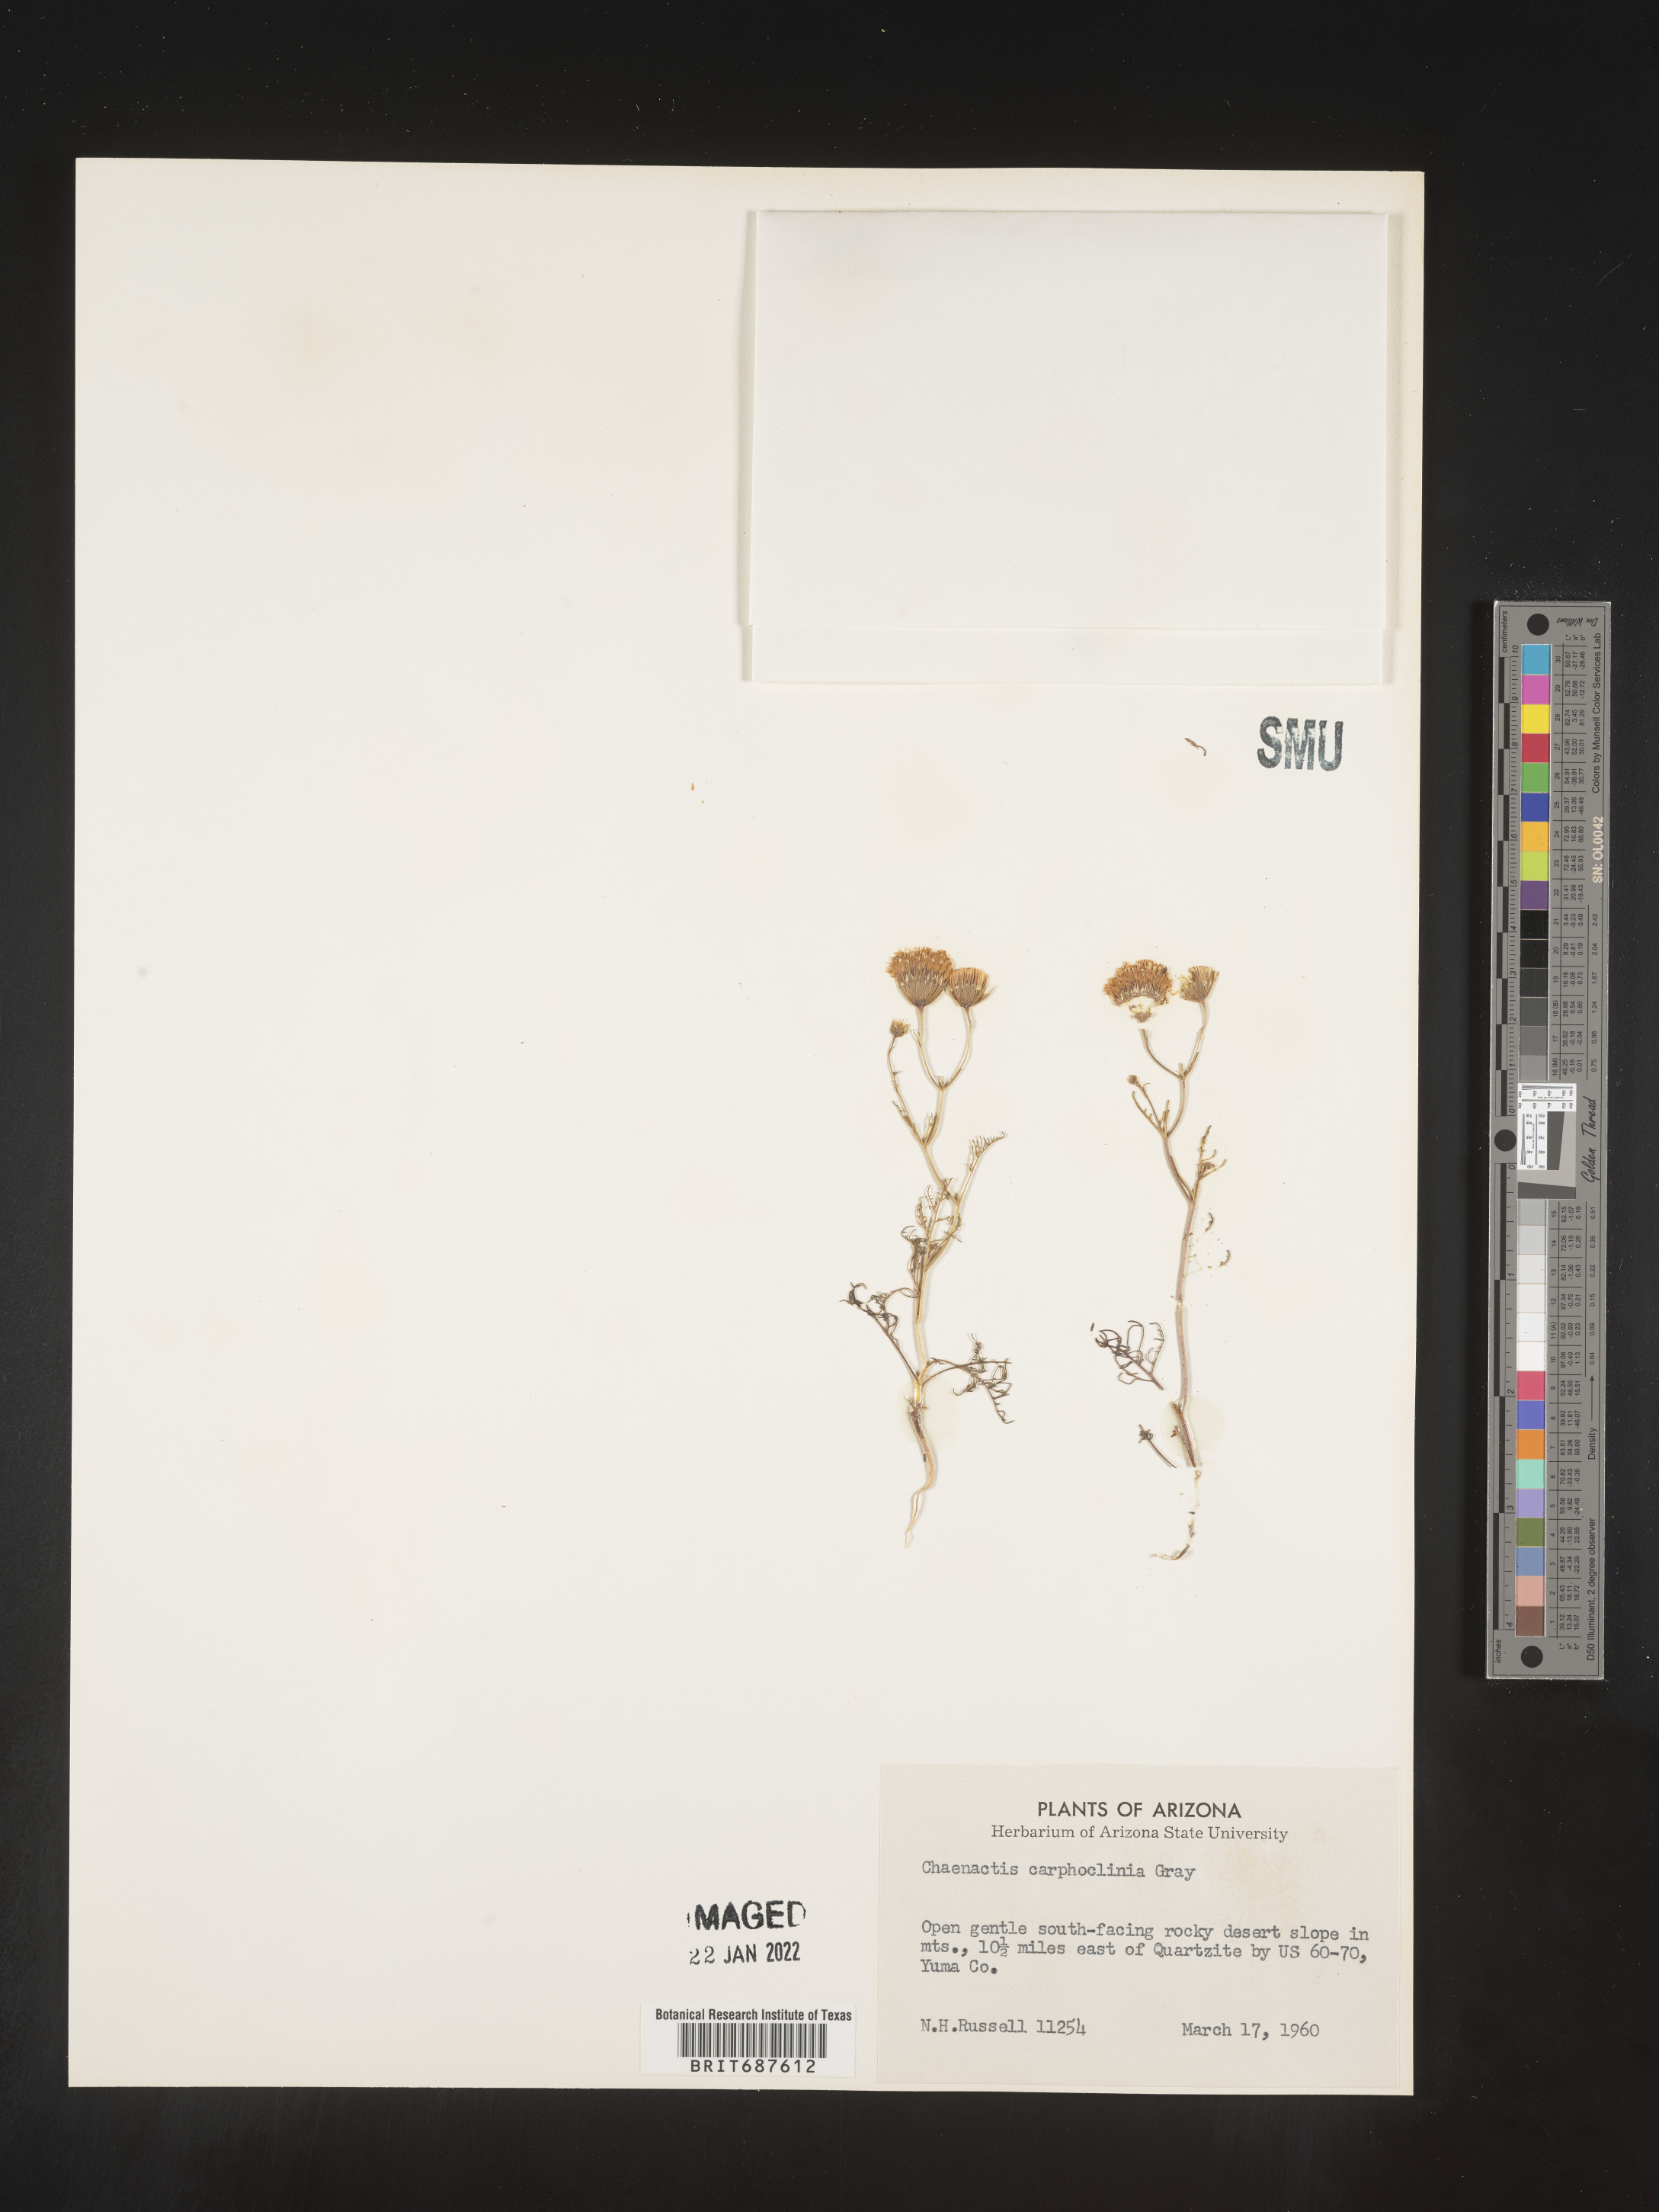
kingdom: Plantae
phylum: Tracheophyta
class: Magnoliopsida
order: Asterales
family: Asteraceae
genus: Chaenactis
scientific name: Chaenactis carphoclinia
